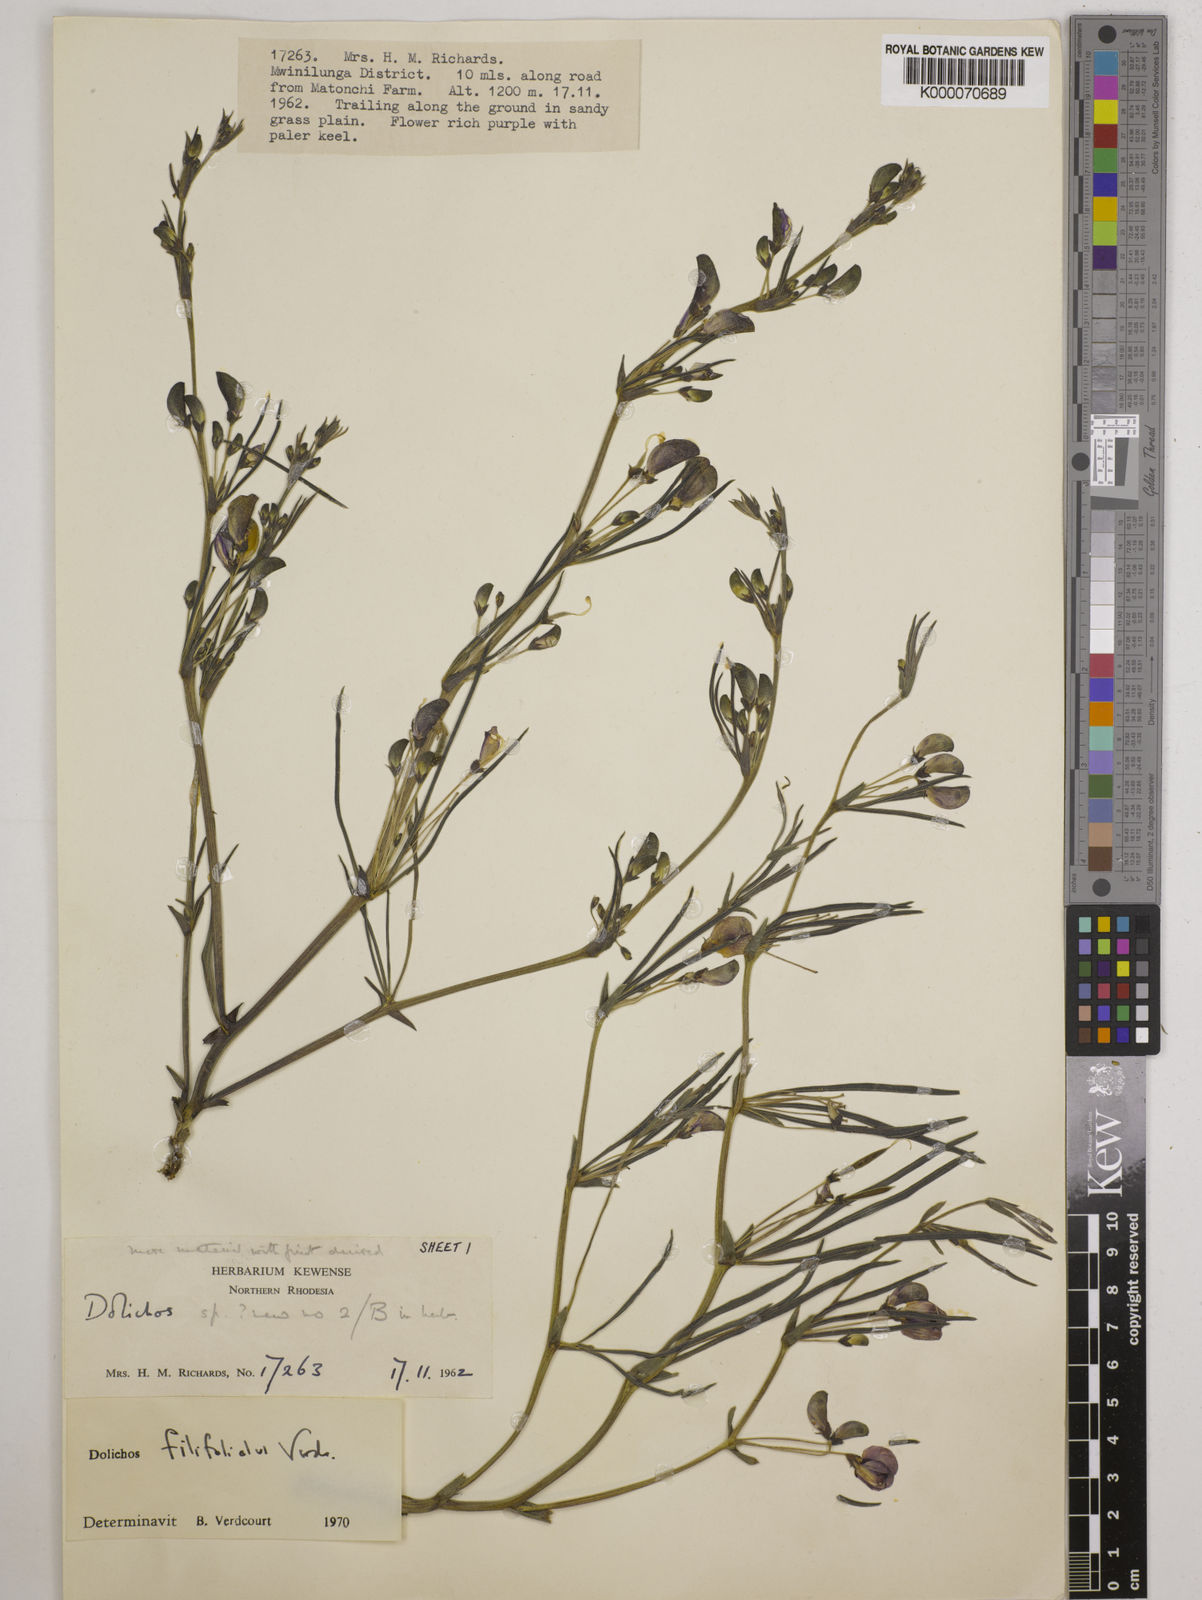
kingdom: Plantae
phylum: Tracheophyta
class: Magnoliopsida
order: Fabales
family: Fabaceae
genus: Dolichos
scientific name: Dolichos filifoliolus
